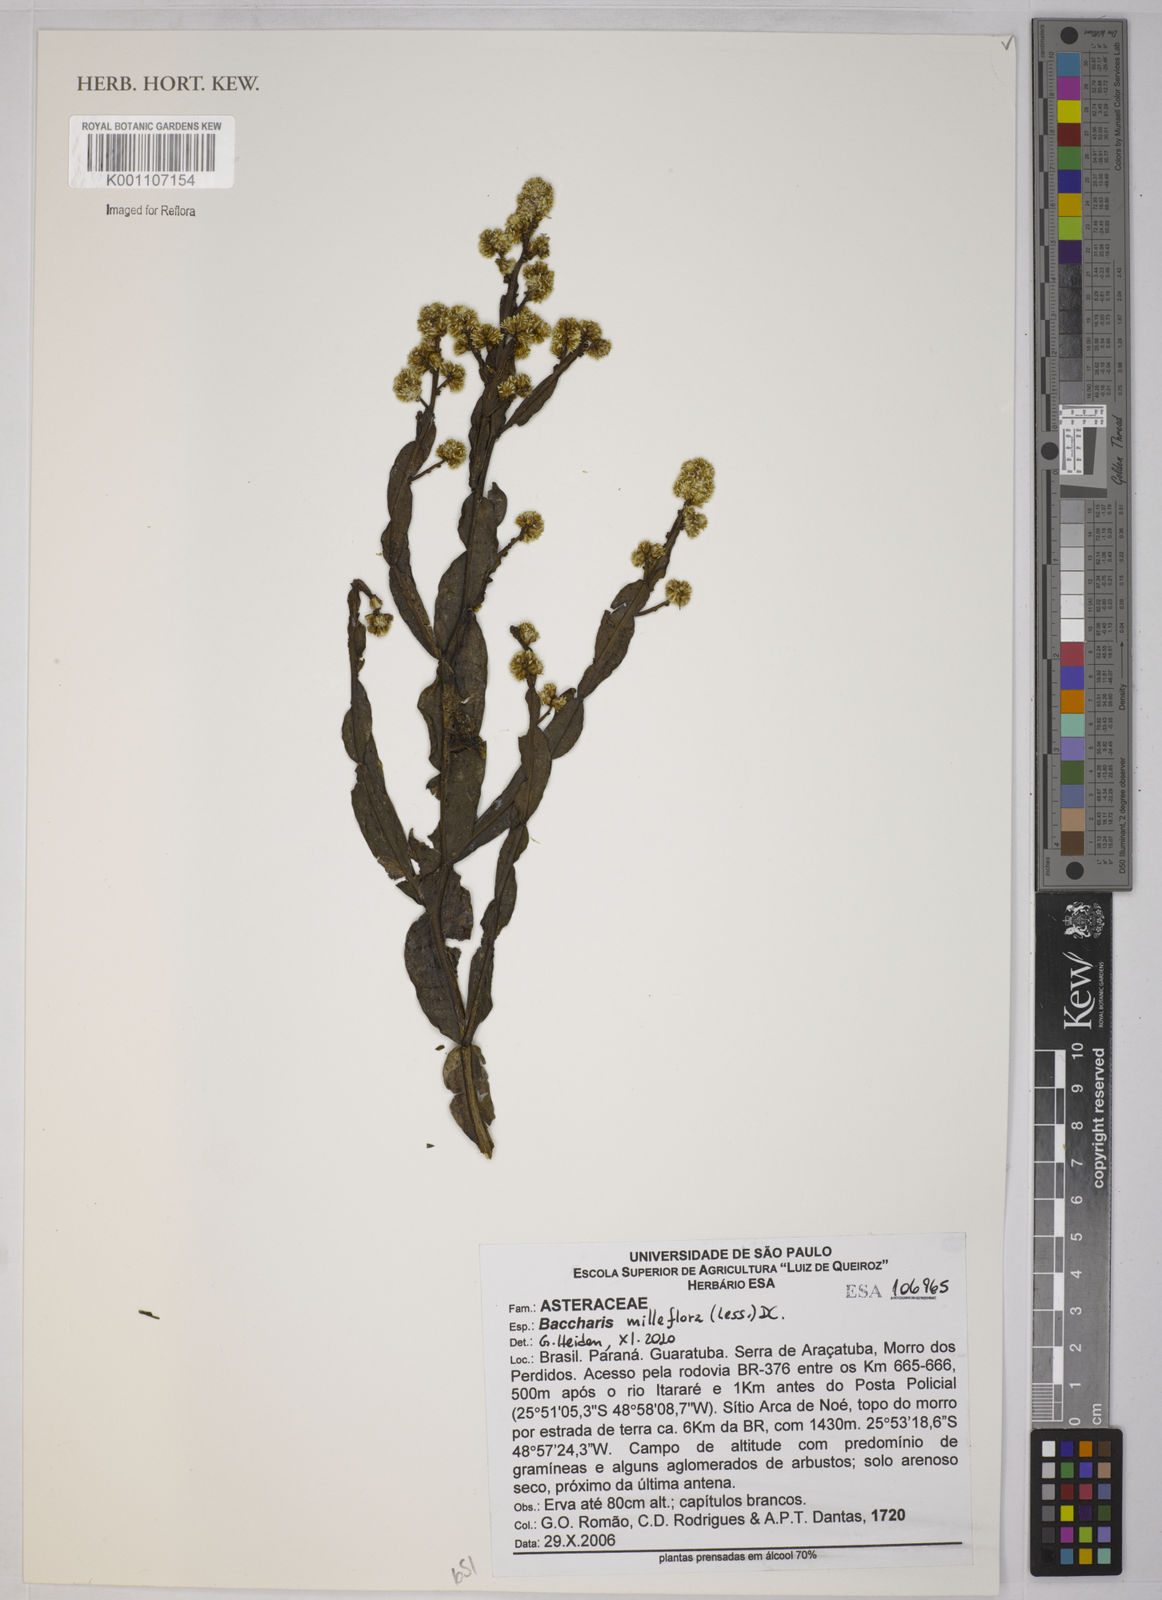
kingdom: Plantae
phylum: Tracheophyta
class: Magnoliopsida
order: Asterales
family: Asteraceae
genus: Baccharis
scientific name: Baccharis milleflora
